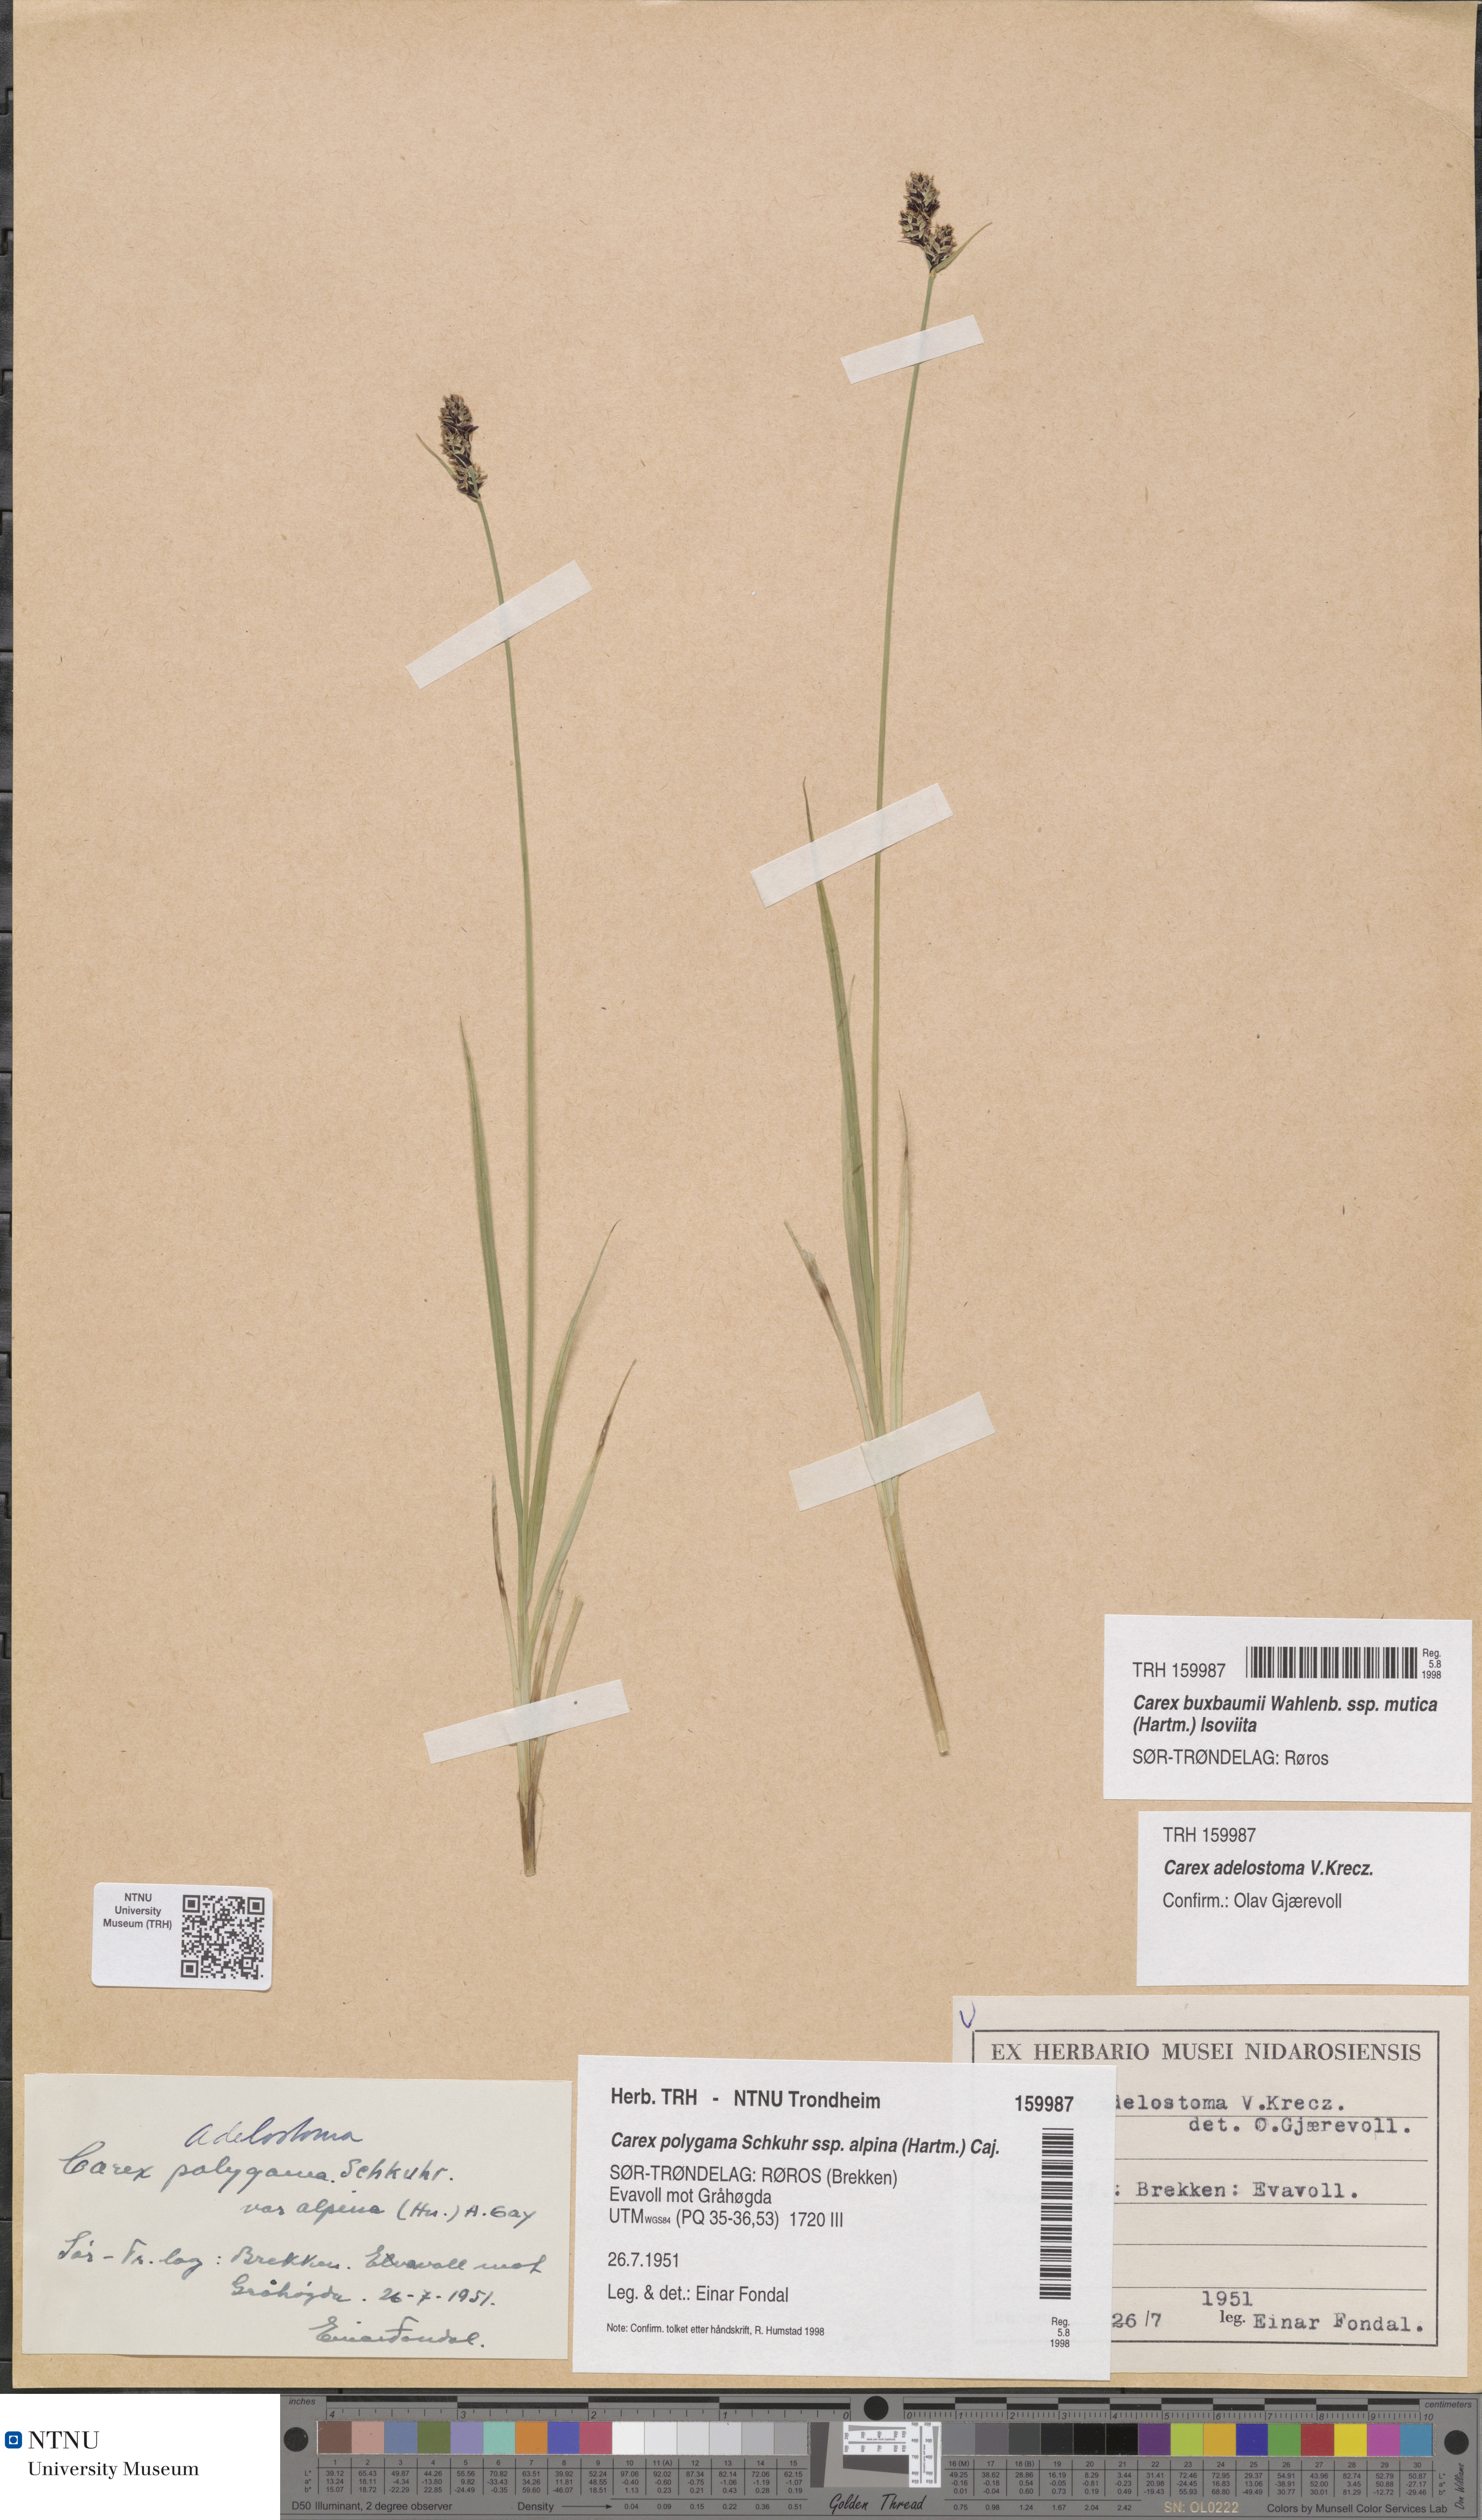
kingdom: Plantae
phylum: Tracheophyta
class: Liliopsida
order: Poales
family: Cyperaceae
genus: Carex
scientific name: Carex adelostoma
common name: Circumpolar sedge
